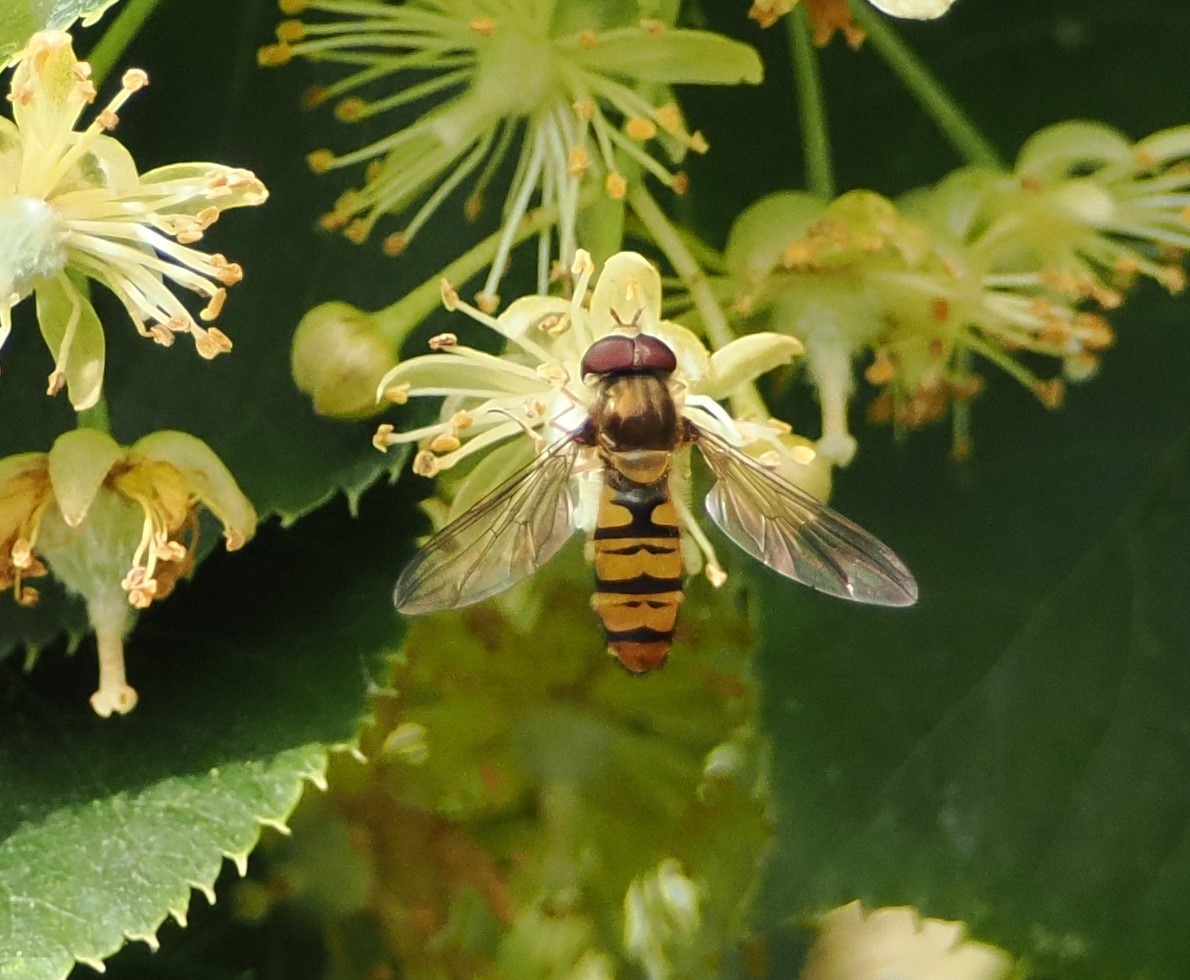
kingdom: Animalia
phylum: Arthropoda
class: Insecta
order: Diptera
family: Syrphidae
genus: Episyrphus
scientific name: Episyrphus balteatus
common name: Dobbeltbåndet svirreflue
